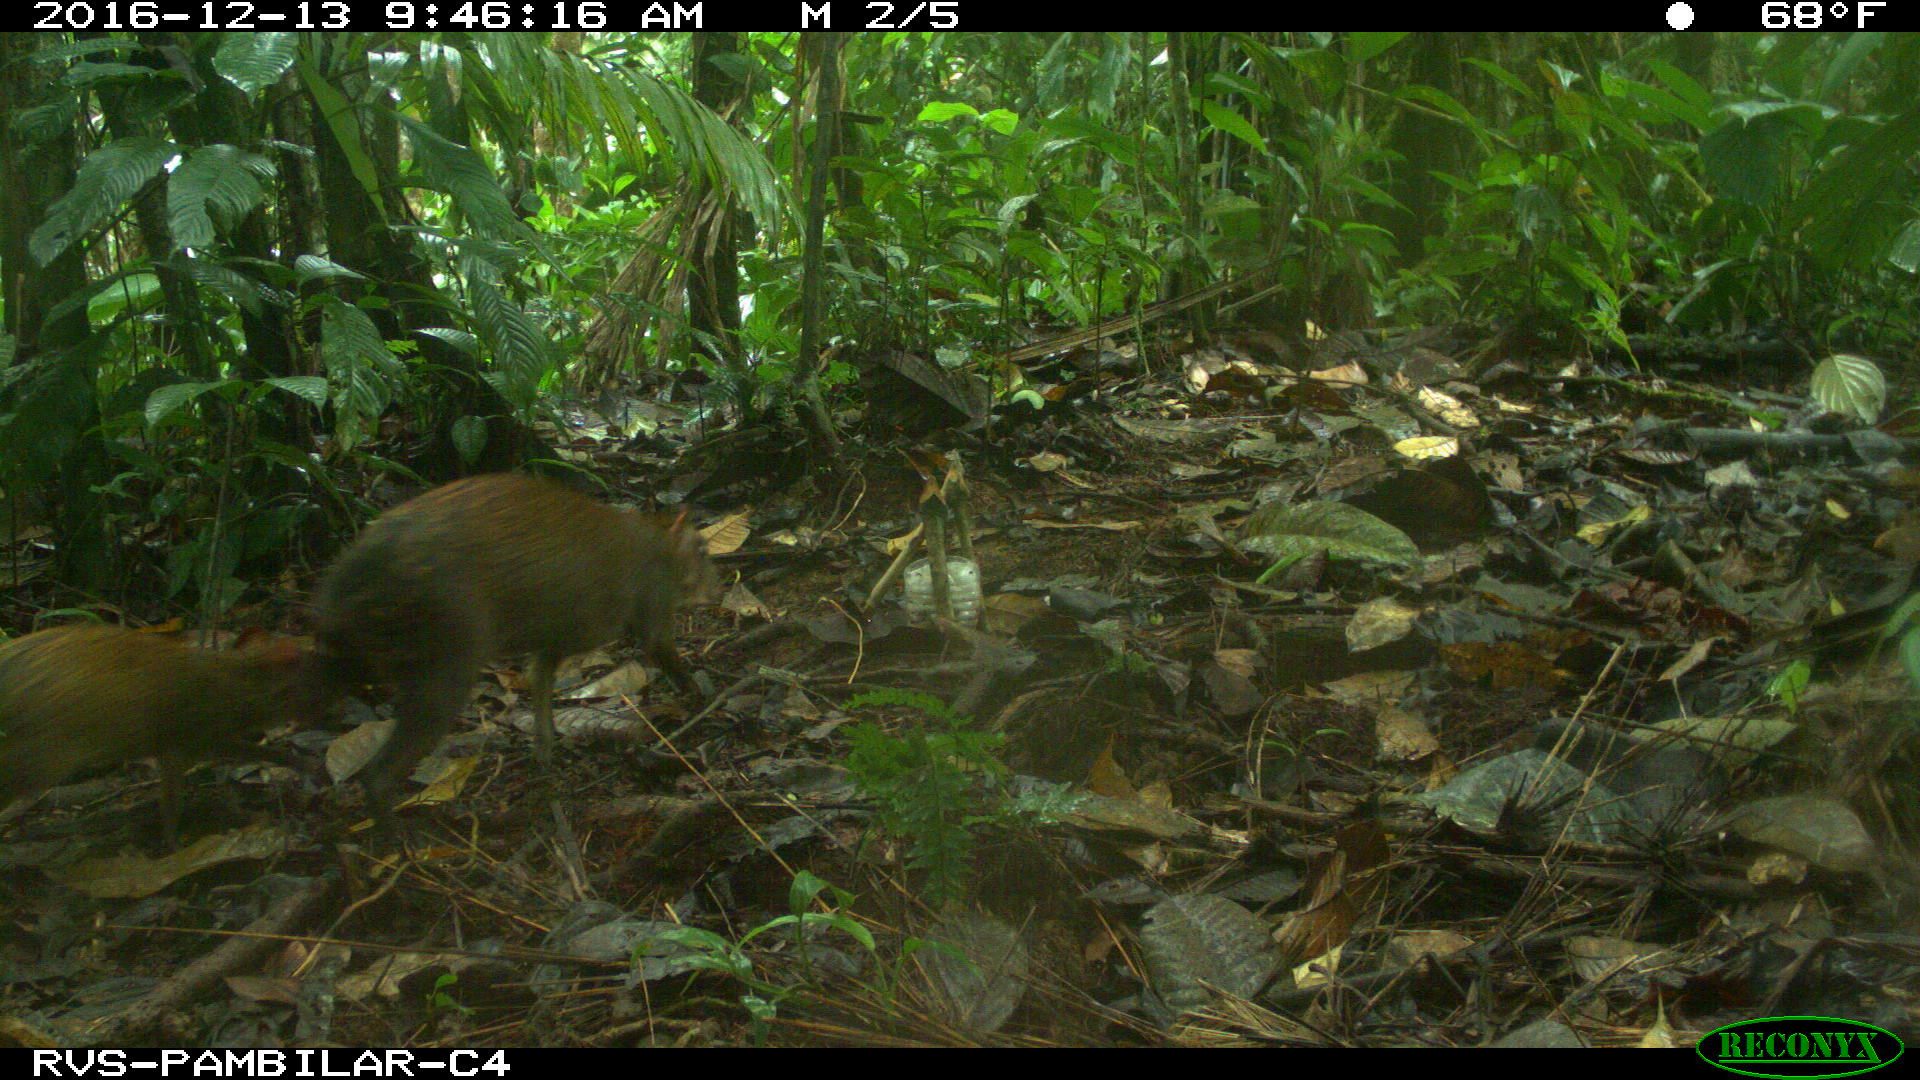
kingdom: Animalia
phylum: Chordata
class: Mammalia
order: Rodentia
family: Dasyproctidae
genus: Dasyprocta
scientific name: Dasyprocta punctata
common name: Central american agouti
